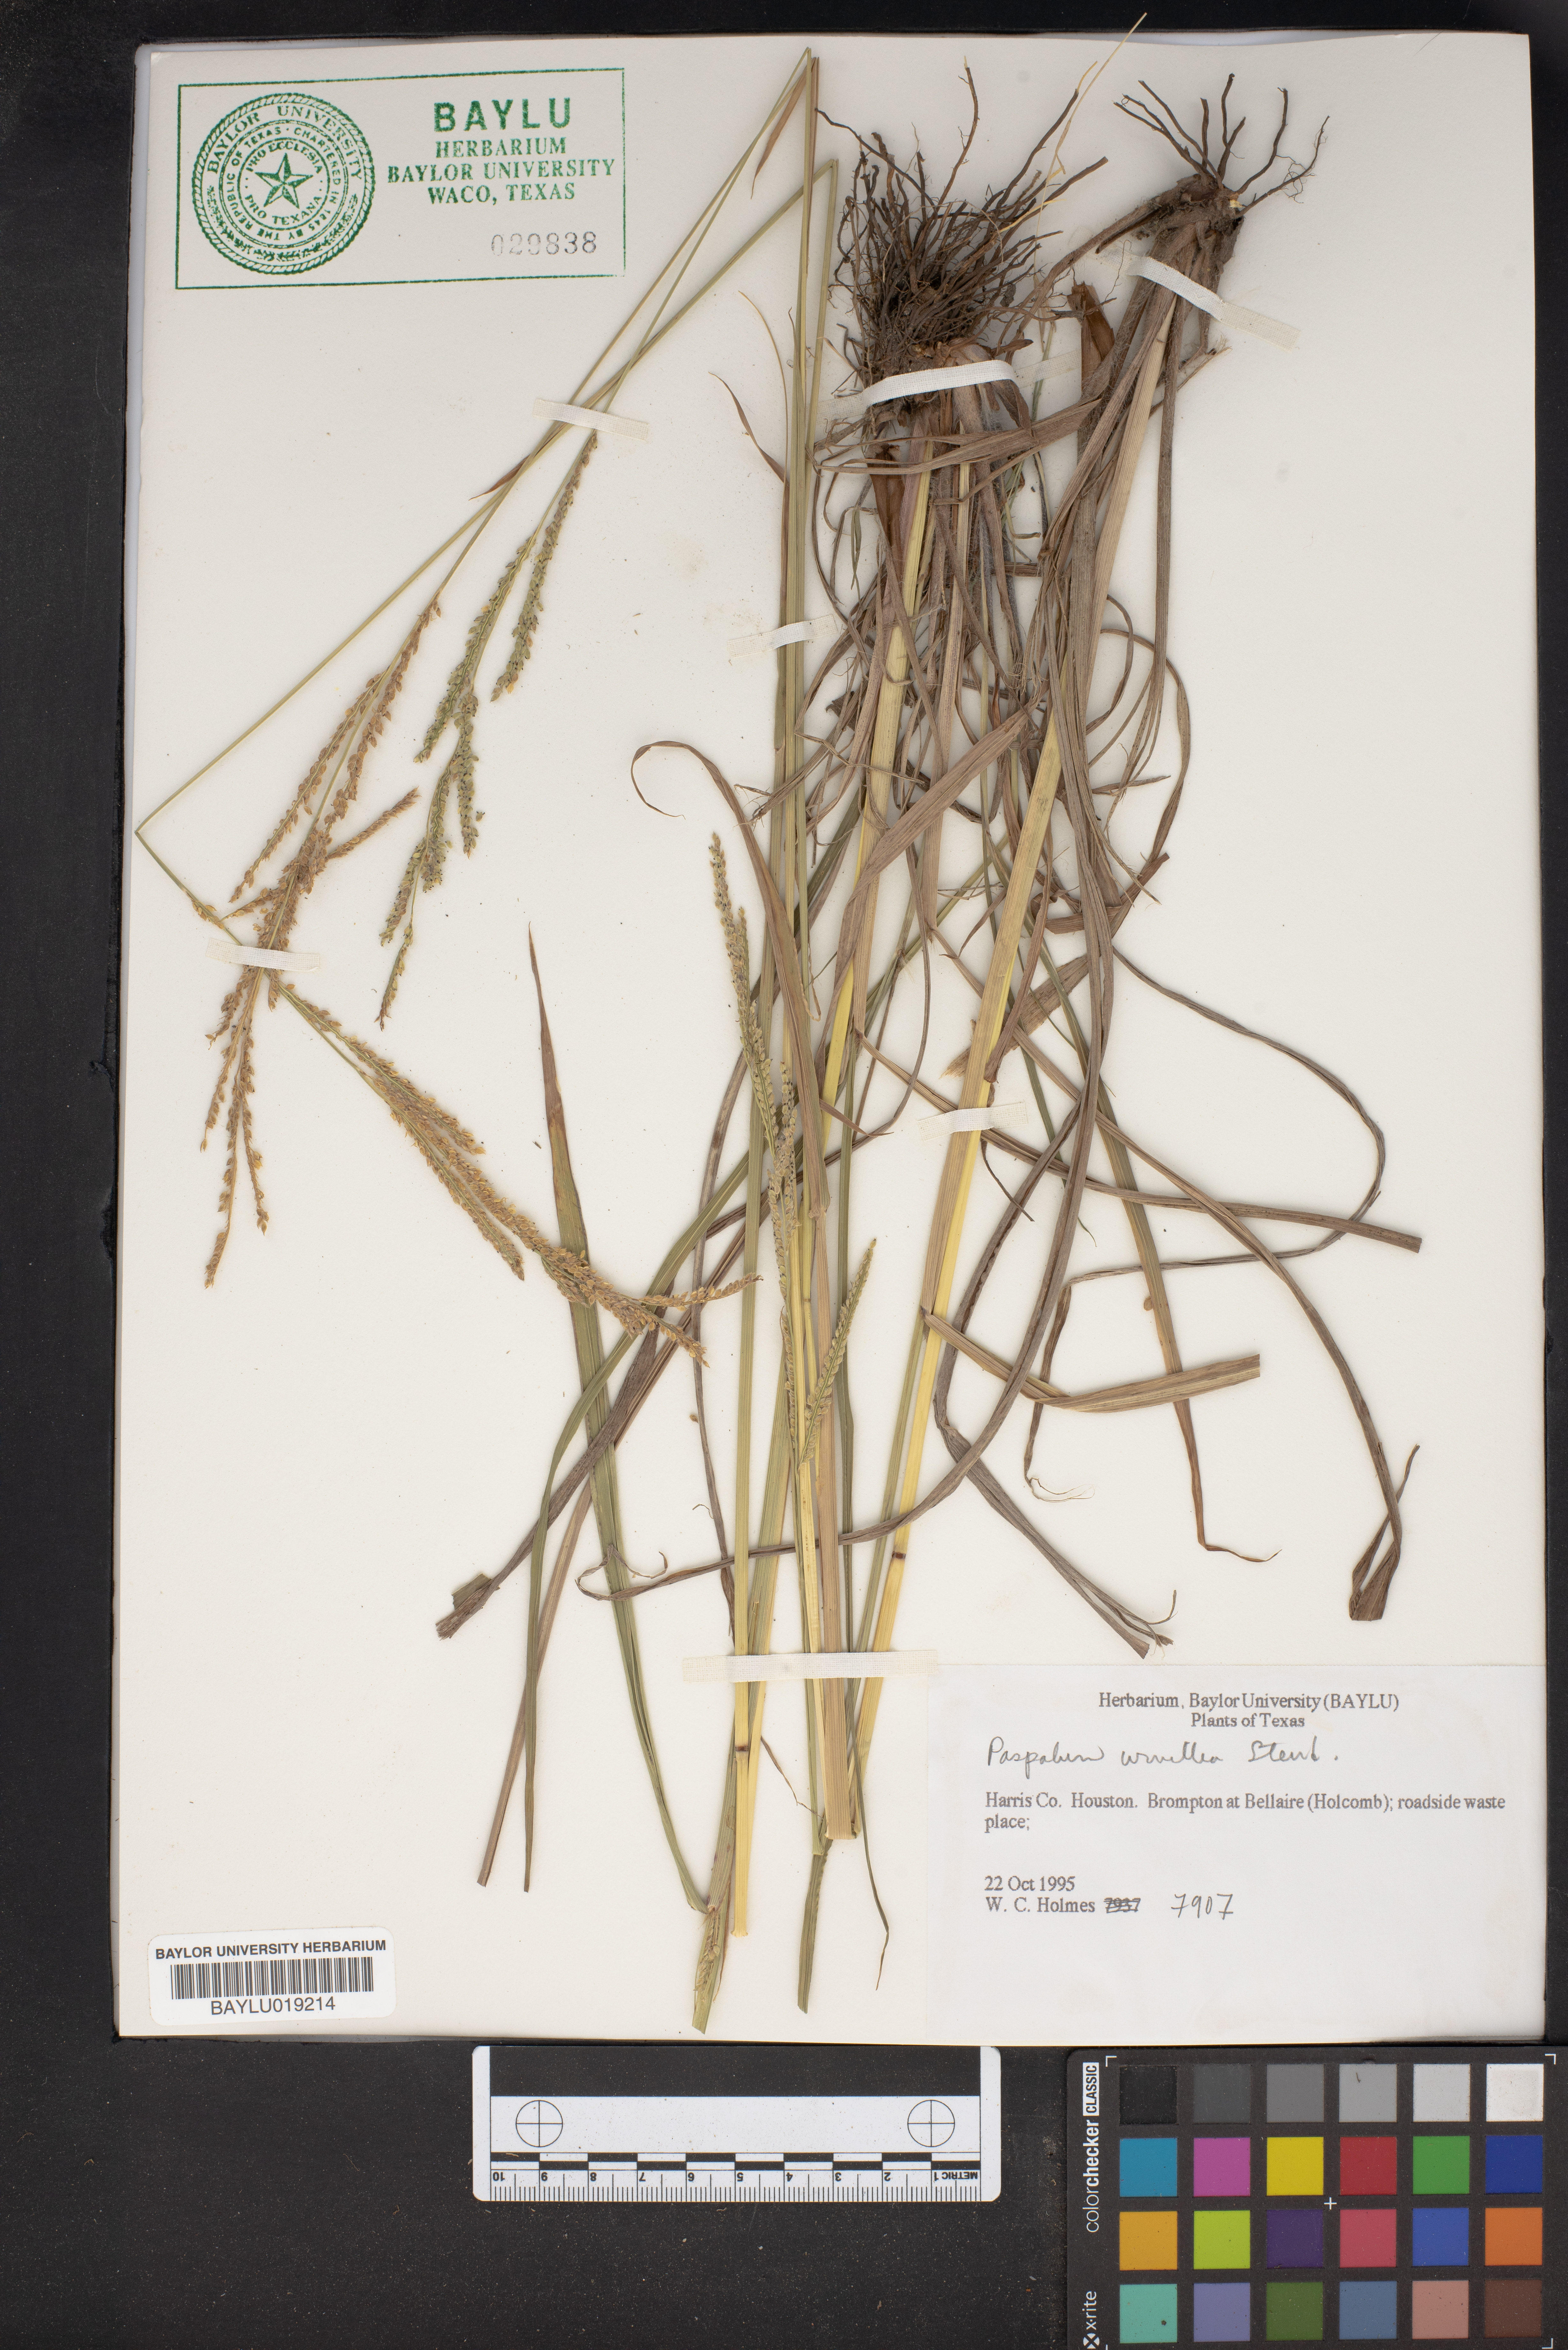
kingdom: Plantae
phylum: Tracheophyta
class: Liliopsida
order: Poales
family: Poaceae
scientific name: Poaceae
